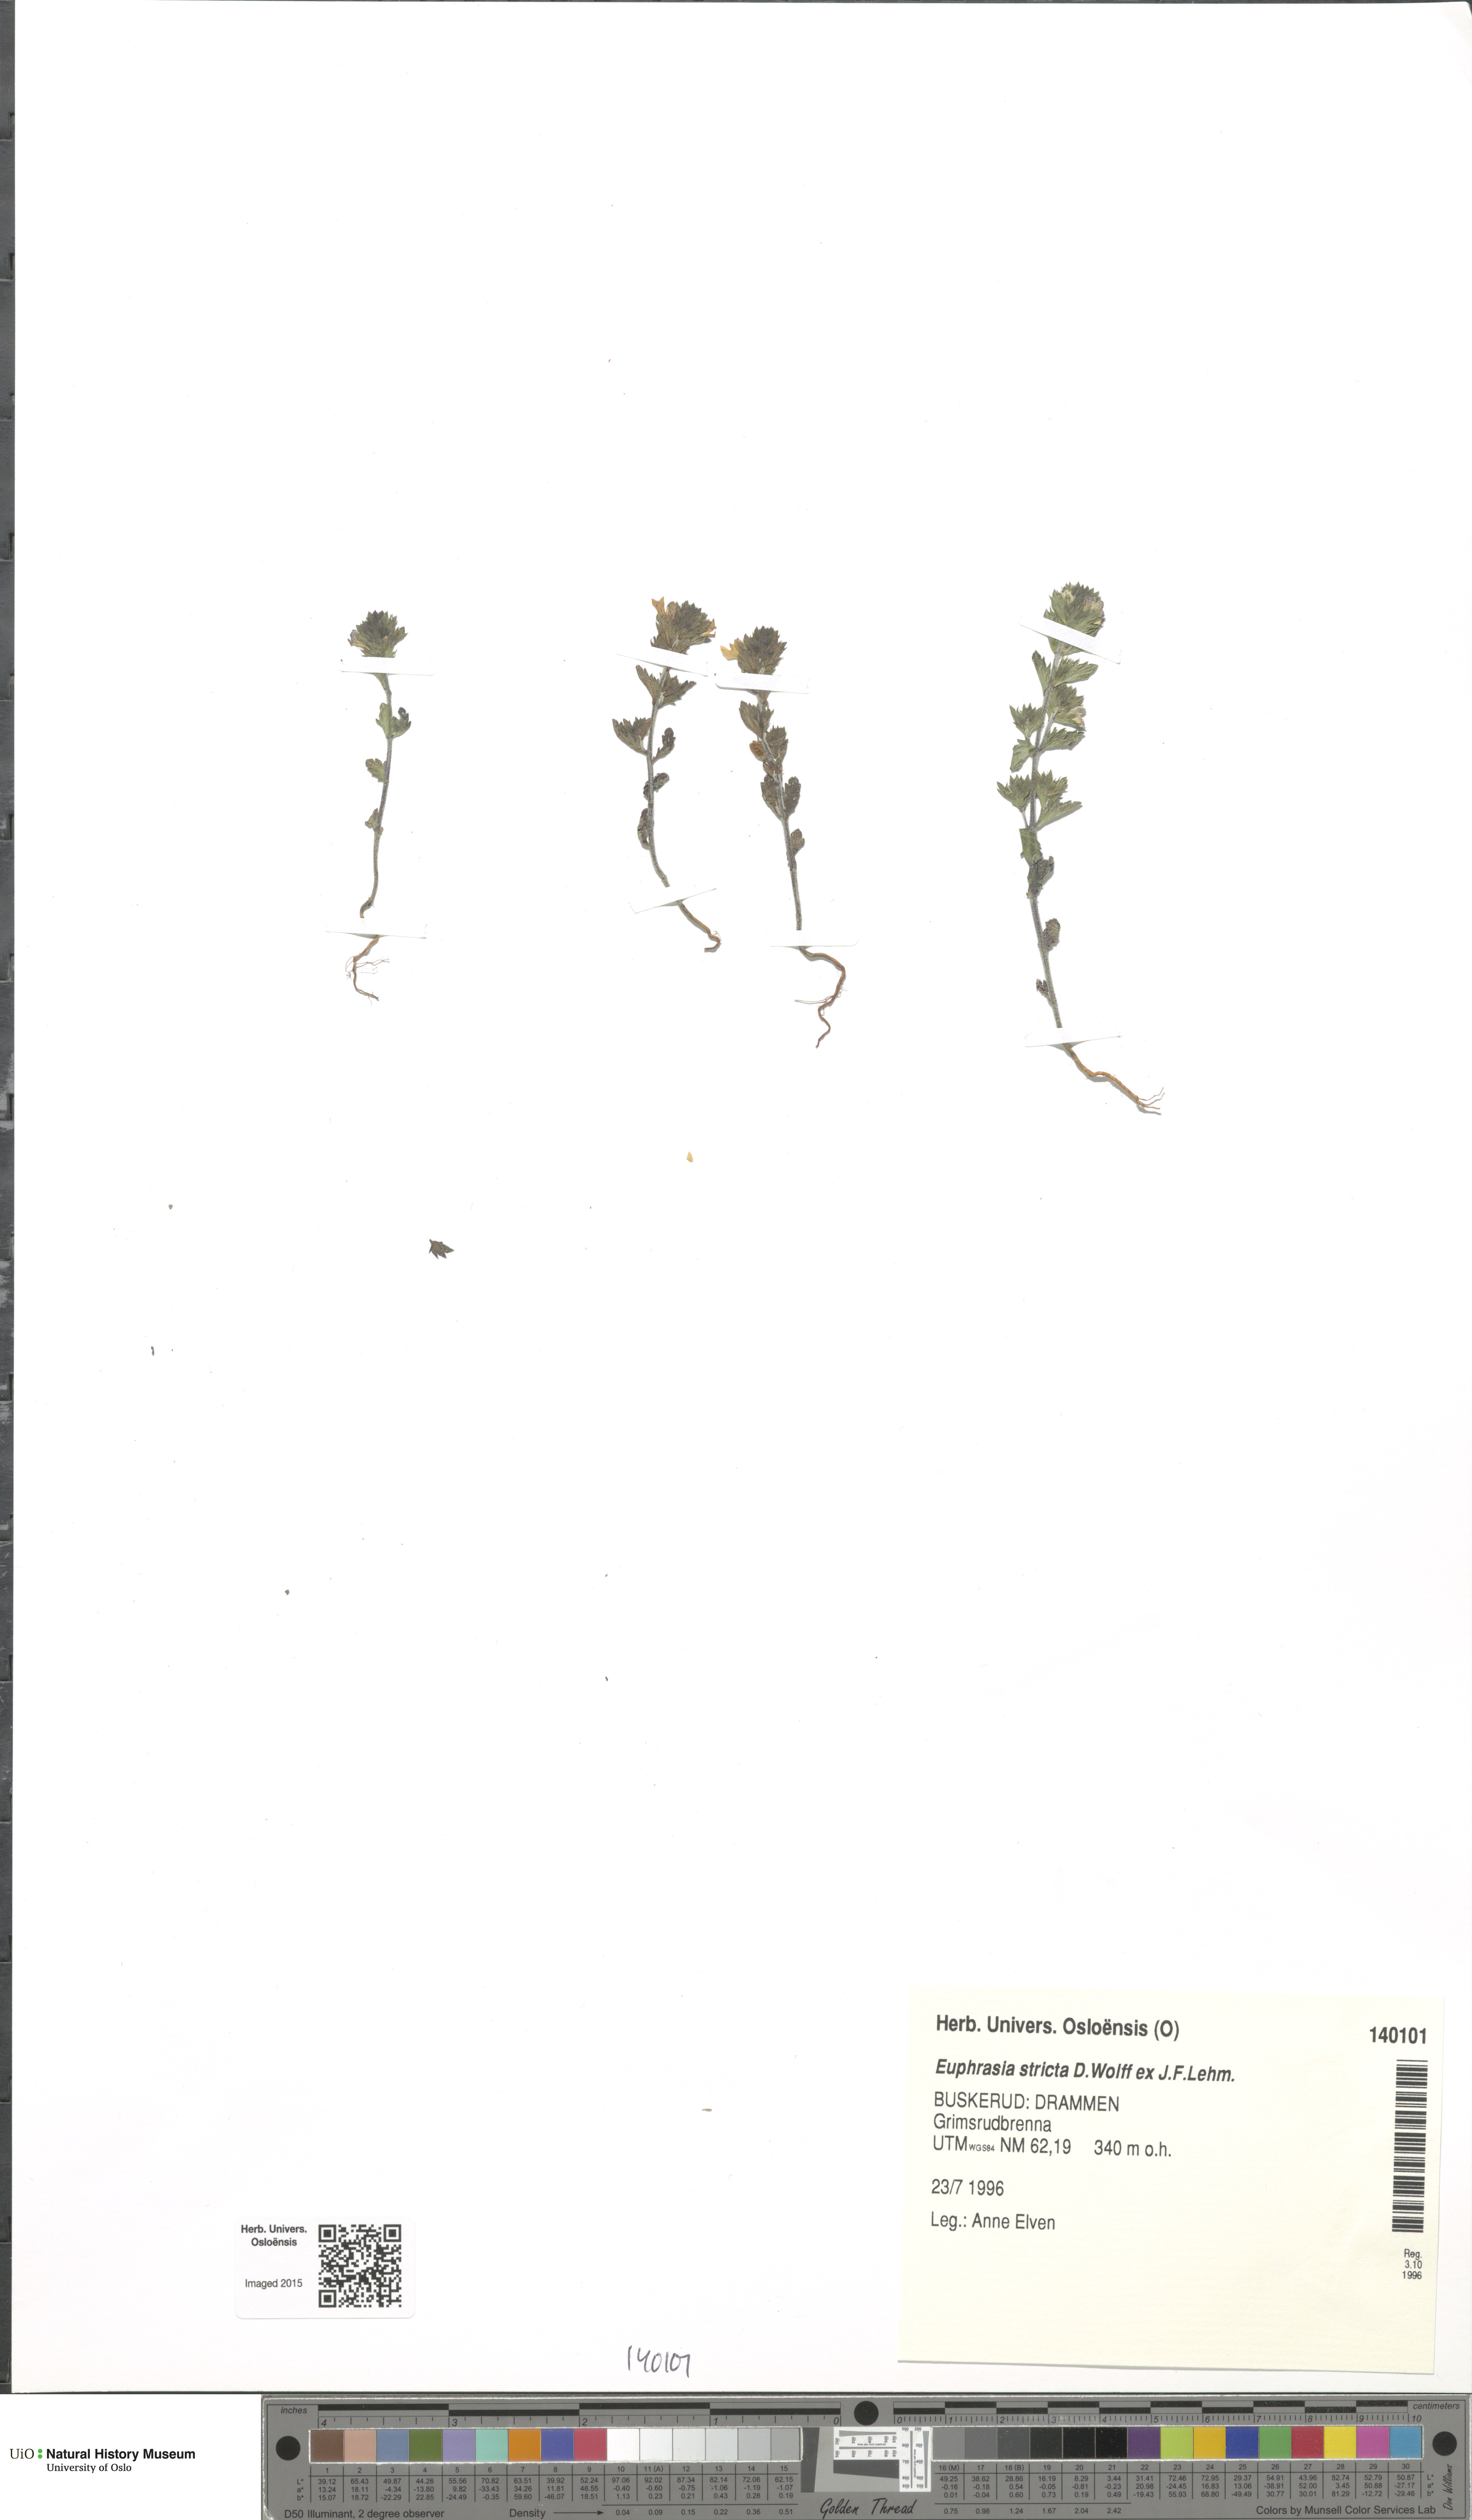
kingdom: Plantae
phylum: Tracheophyta
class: Magnoliopsida
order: Lamiales
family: Orobanchaceae
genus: Euphrasia
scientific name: Euphrasia stricta
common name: Drug eyebright
